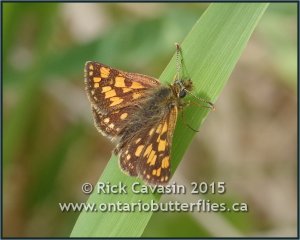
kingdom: Animalia
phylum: Arthropoda
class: Insecta
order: Lepidoptera
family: Hesperiidae
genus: Carterocephalus
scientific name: Carterocephalus palaemon
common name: Chequered Skipper
